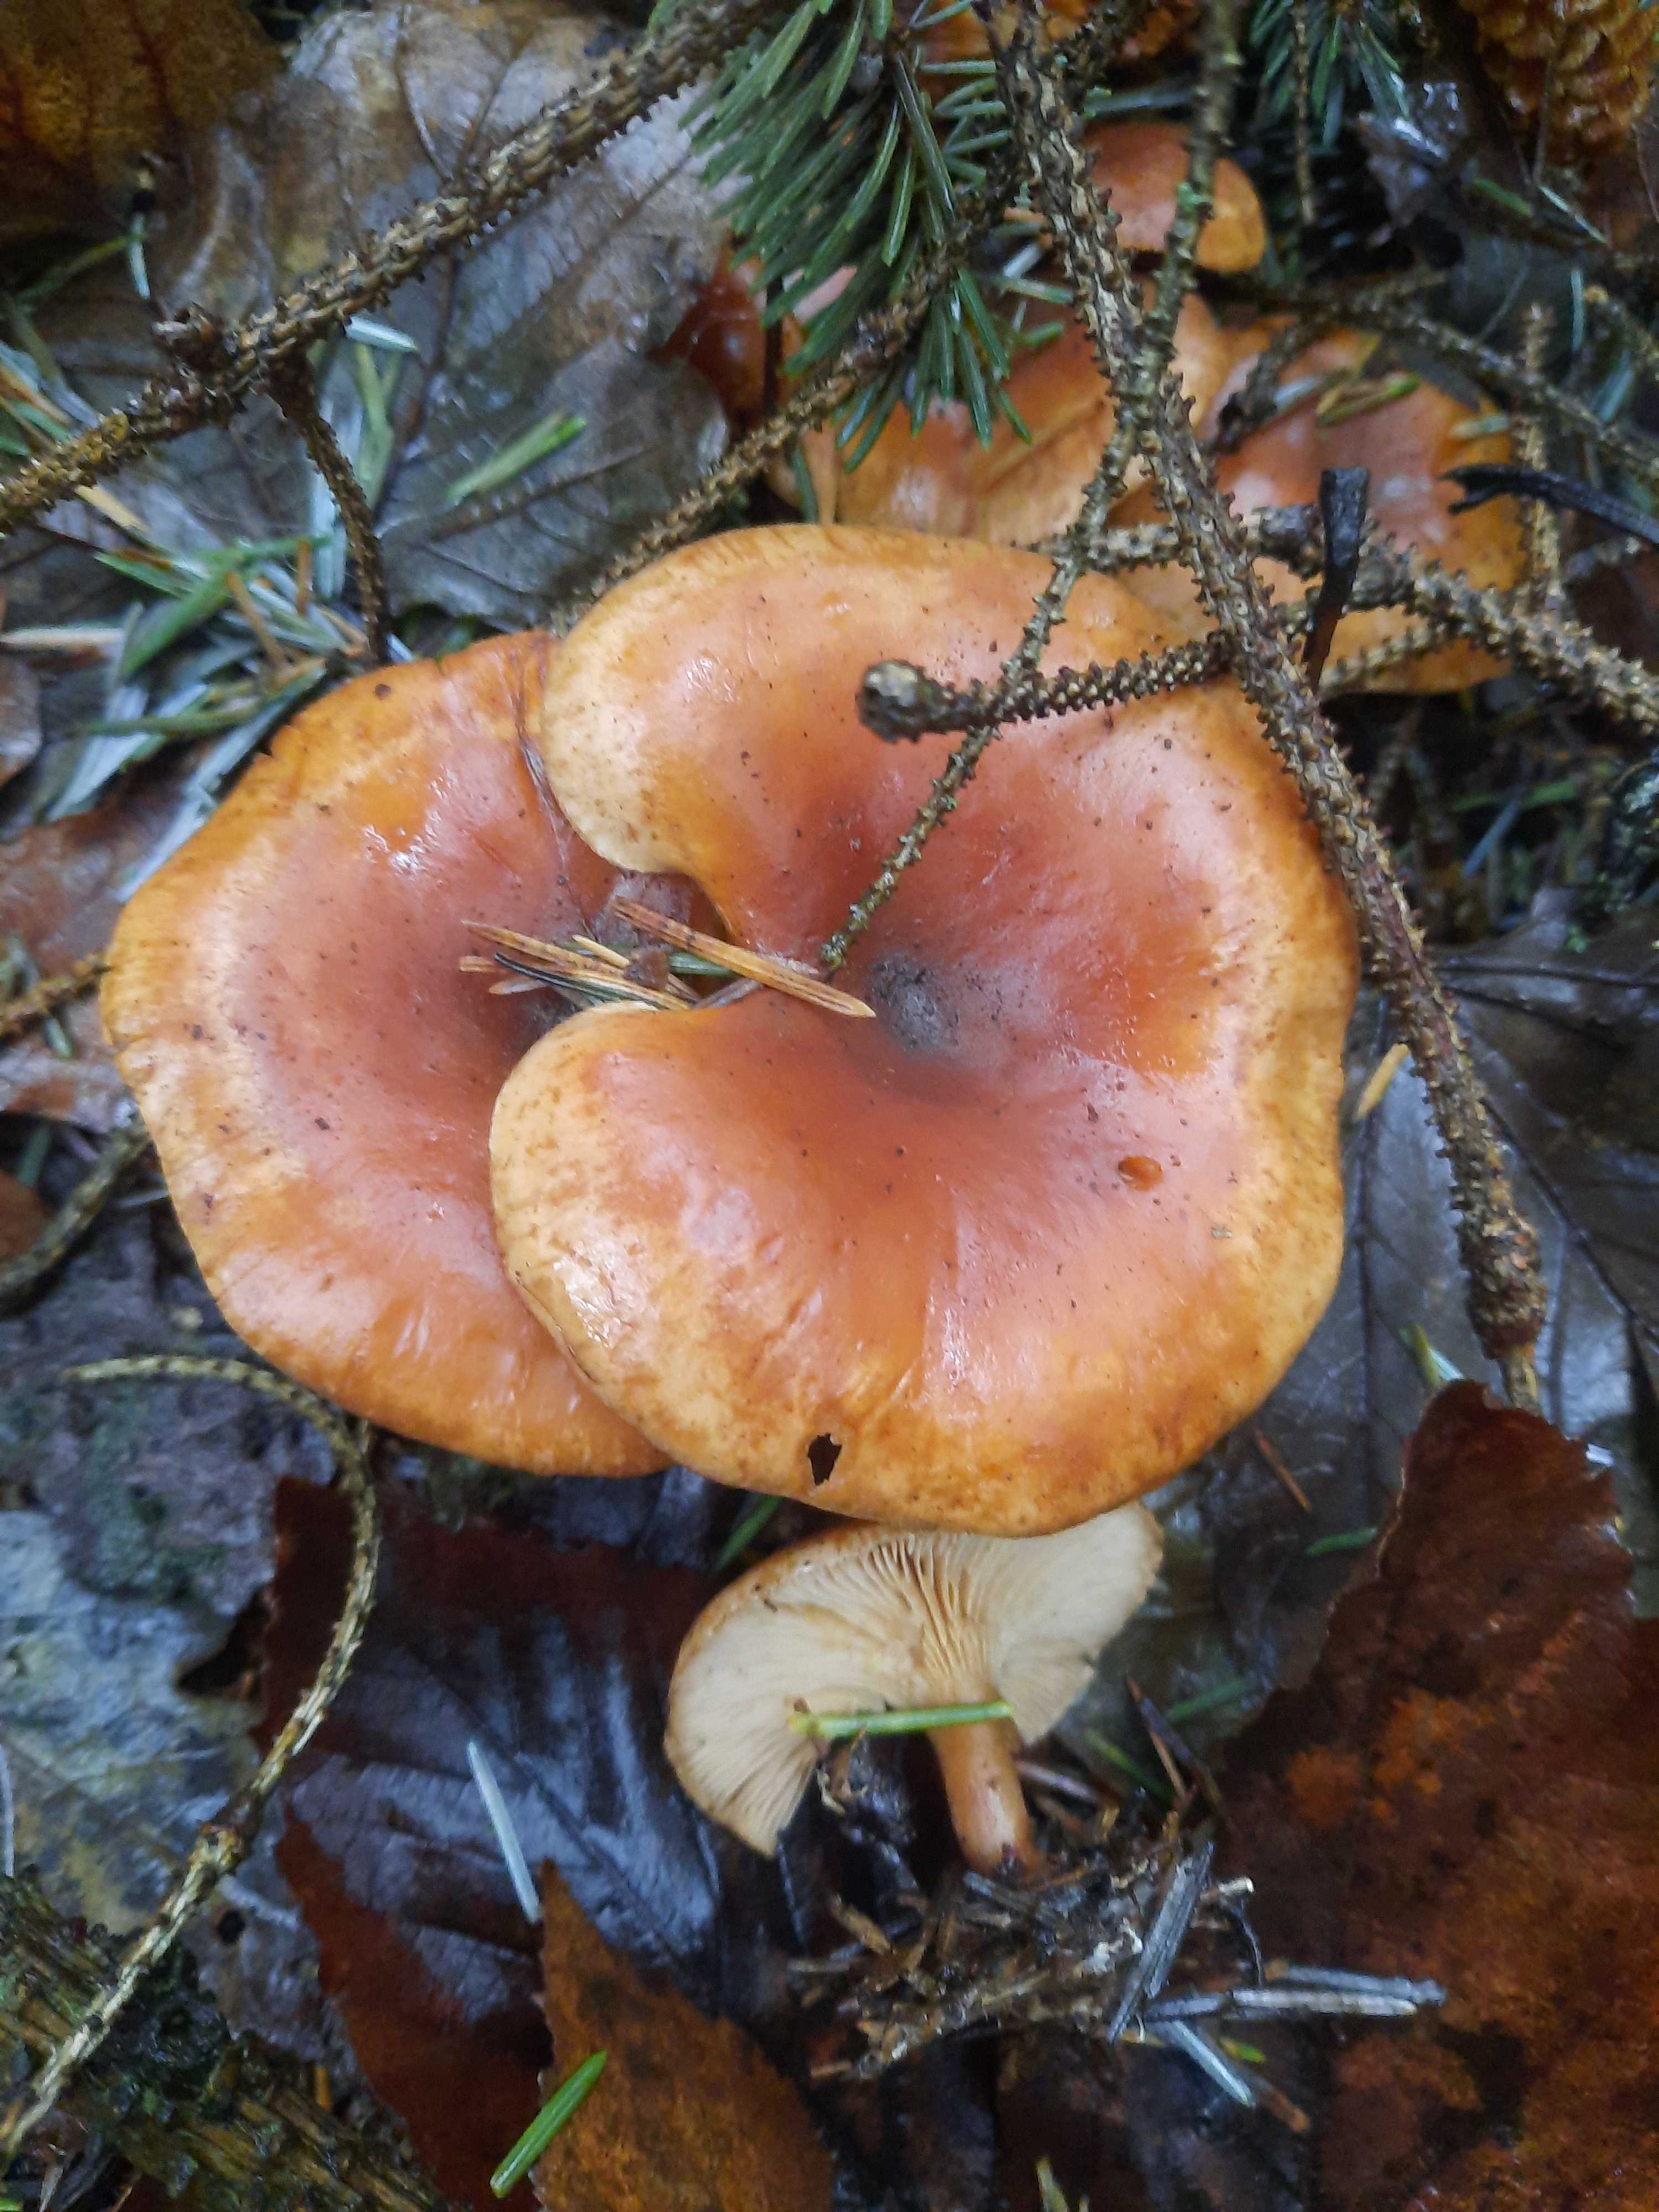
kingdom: Fungi
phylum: Basidiomycota
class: Agaricomycetes
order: Agaricales
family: Tricholomataceae
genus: Paralepista
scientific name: Paralepista flaccida
